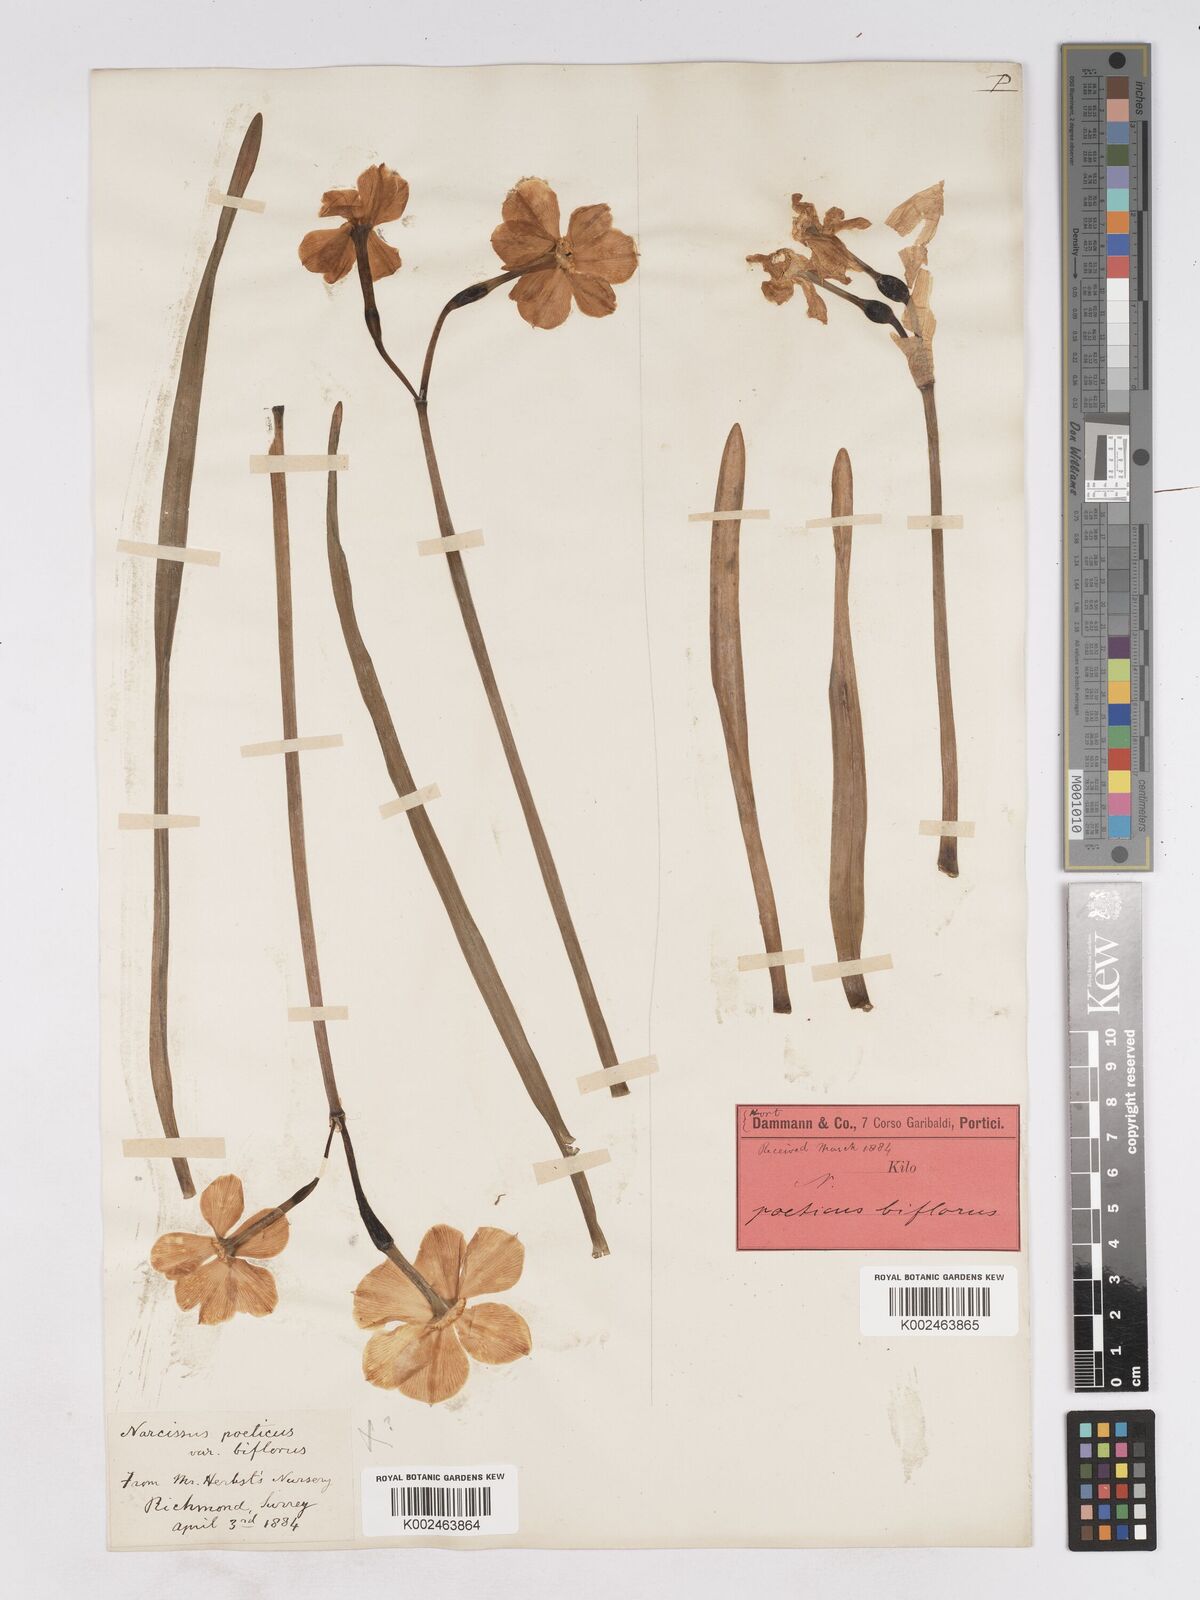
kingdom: Plantae
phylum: Tracheophyta
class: Liliopsida
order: Asparagales
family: Amaryllidaceae
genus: Narcissus
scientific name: Narcissus
